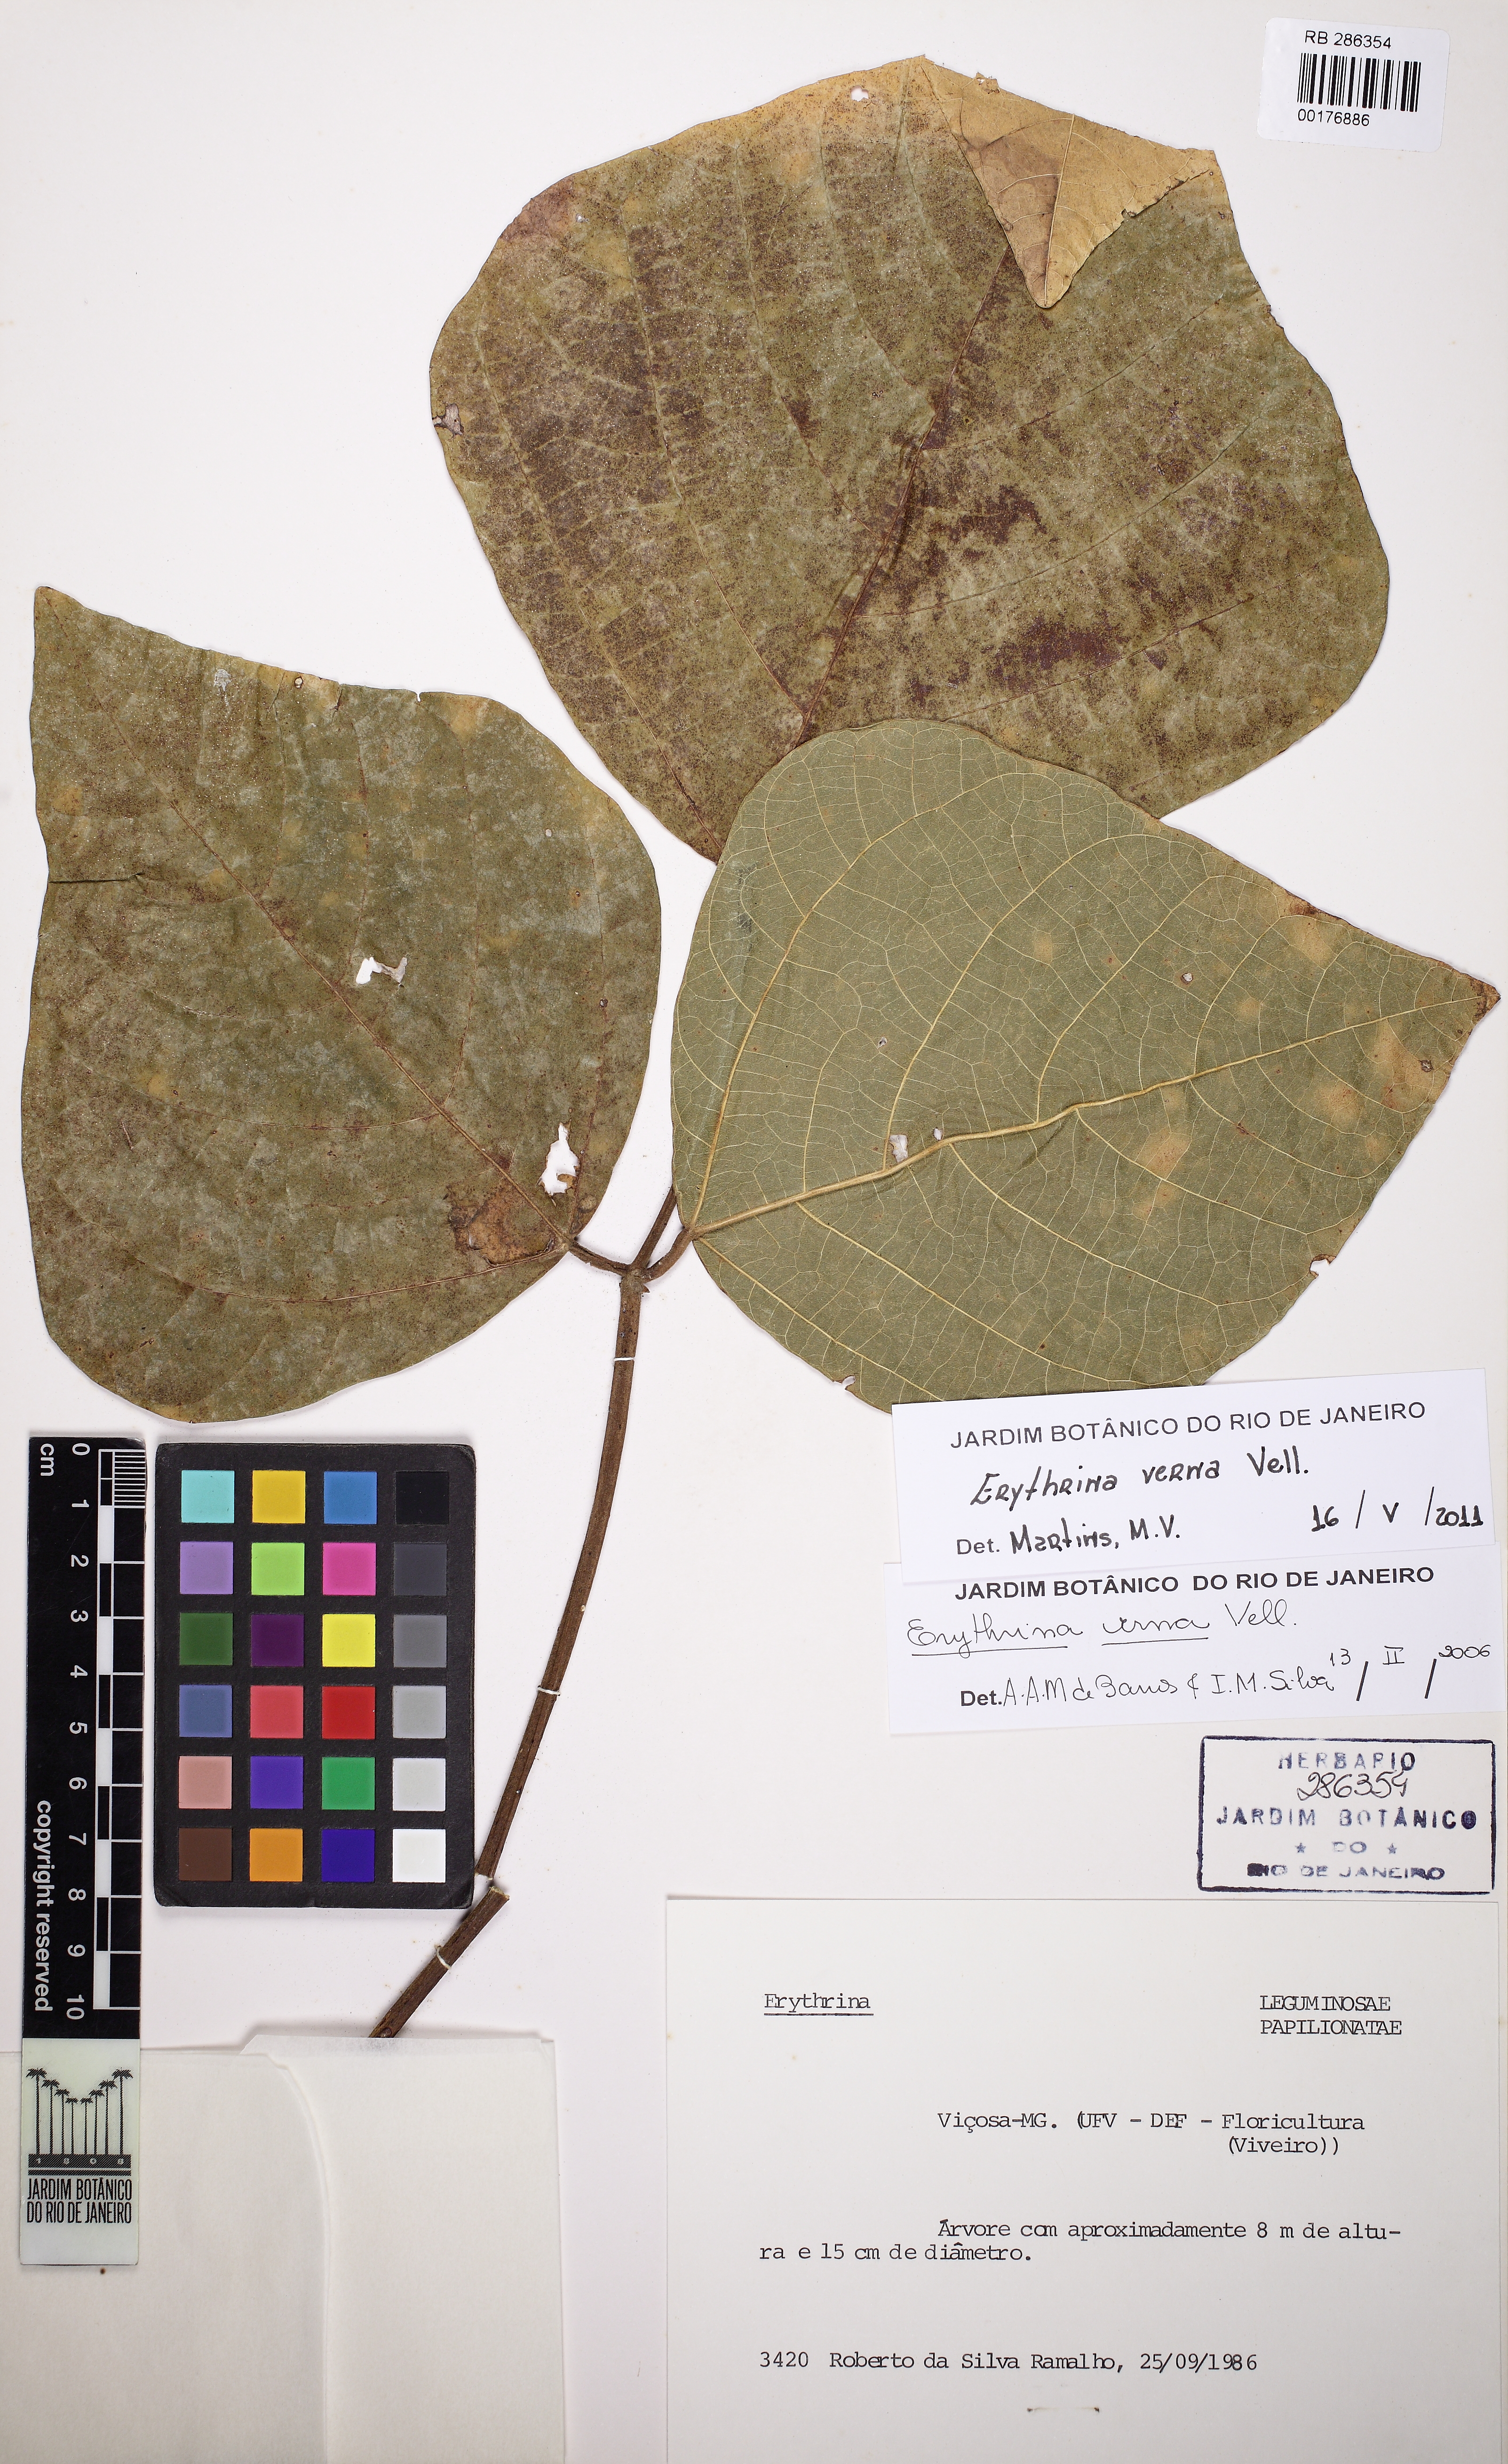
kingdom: Plantae
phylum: Tracheophyta
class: Magnoliopsida
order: Fabales
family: Fabaceae
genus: Erythrina
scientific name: Erythrina verna
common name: Mulungú
